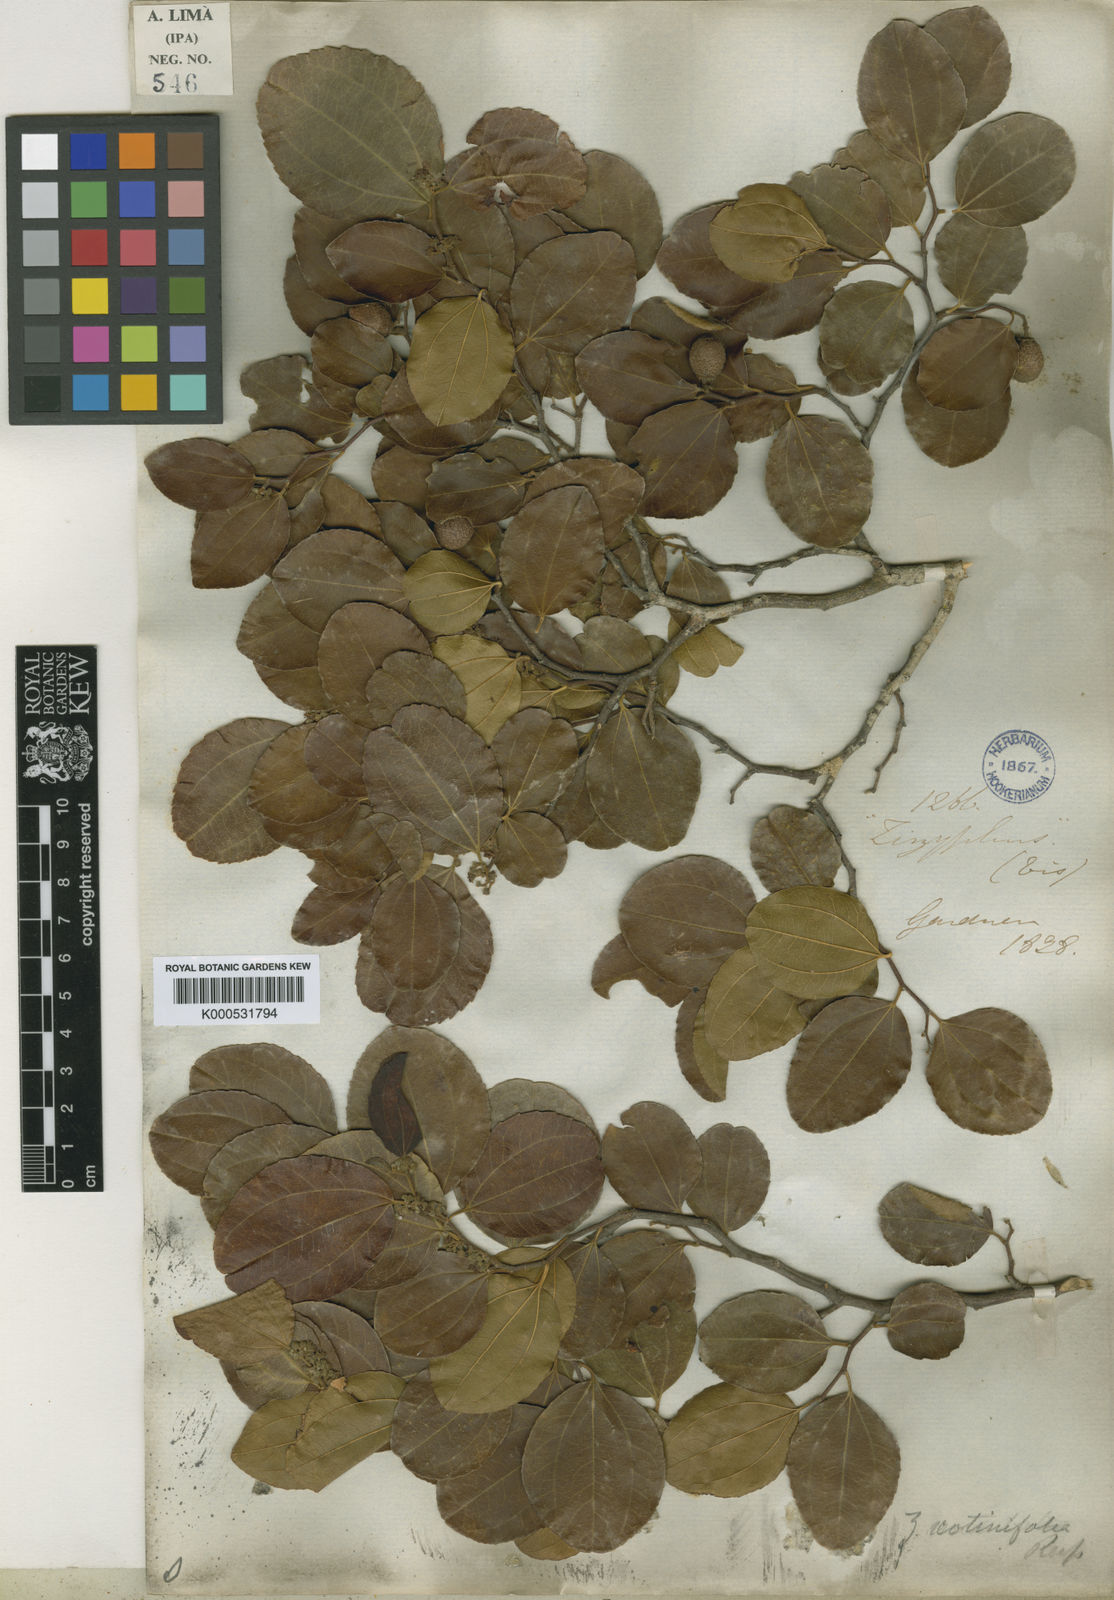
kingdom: Plantae
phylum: Tracheophyta
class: Magnoliopsida
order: Rosales
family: Rhamnaceae
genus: Sarcomphalus
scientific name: Sarcomphalus cotinifolius
